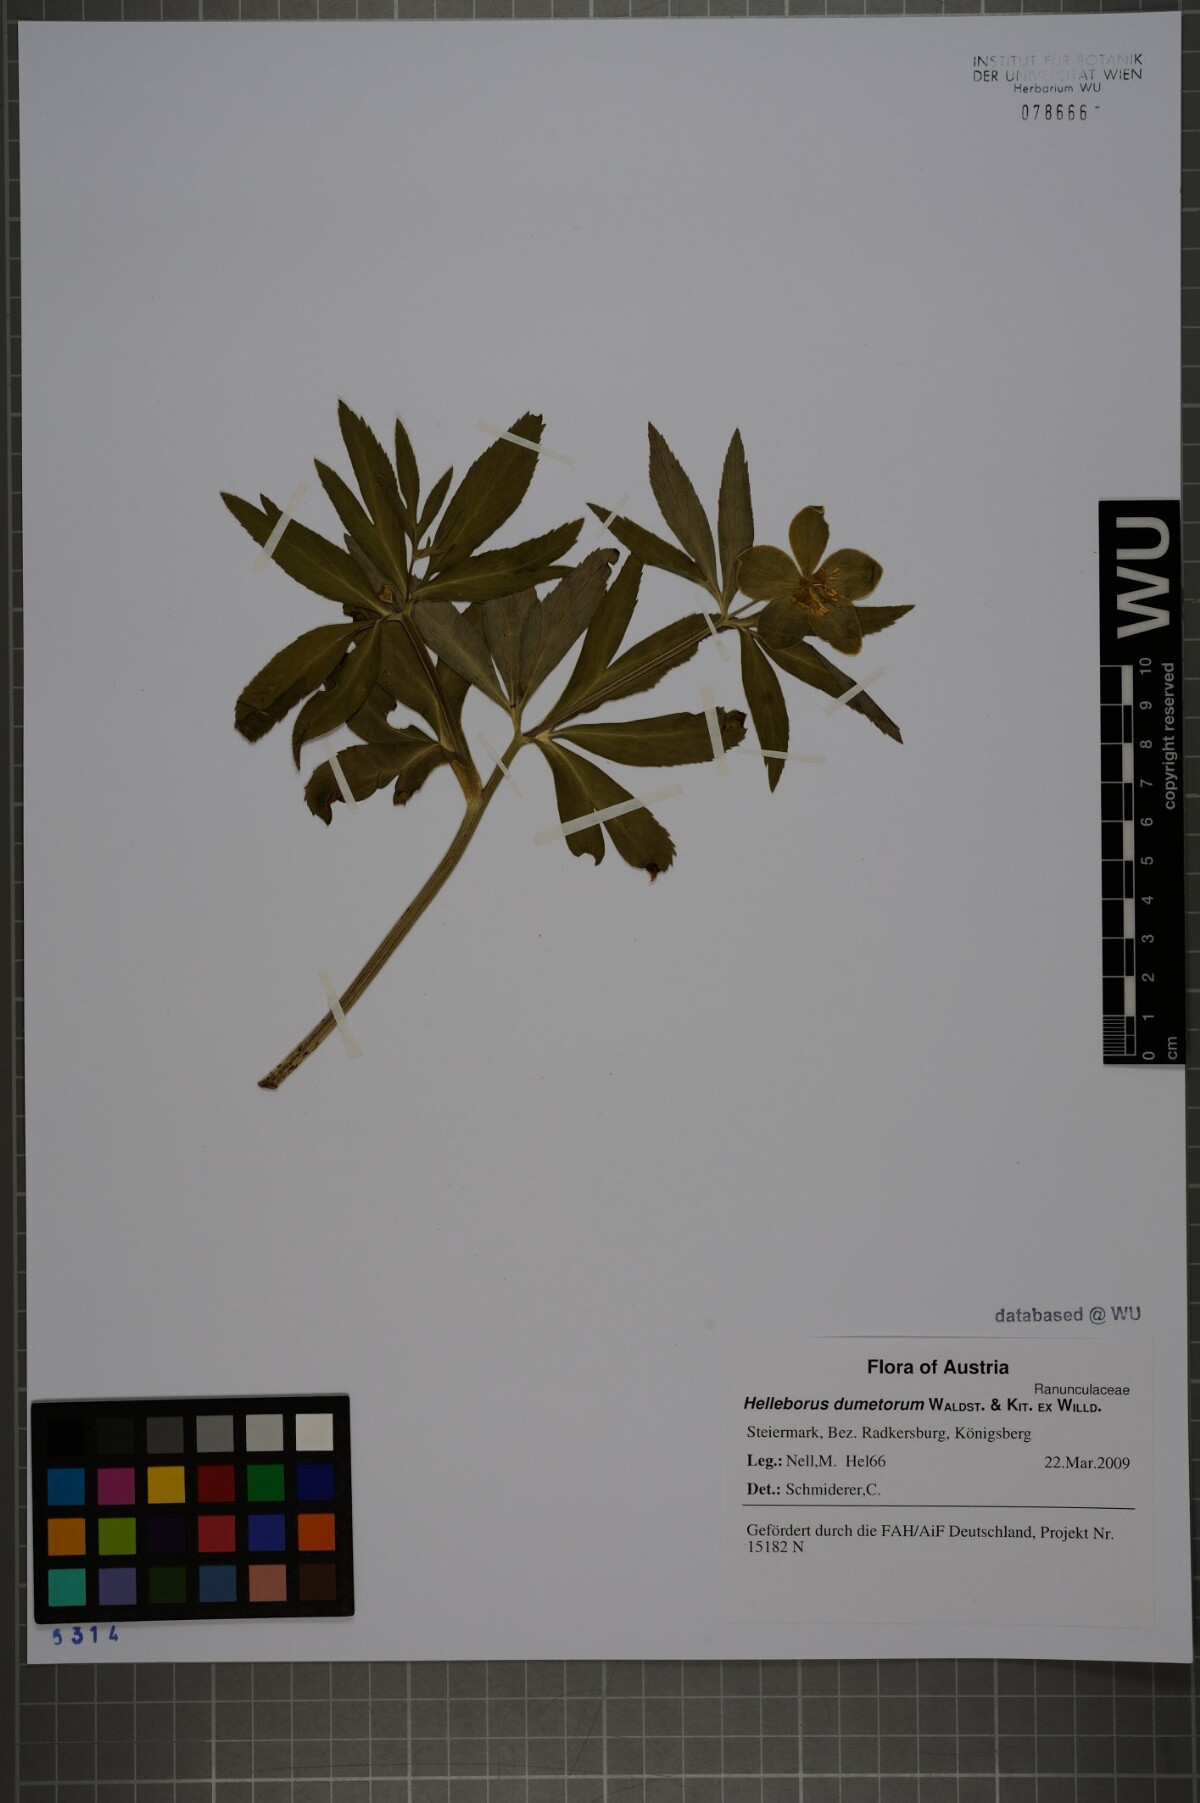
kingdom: Plantae
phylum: Tracheophyta
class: Magnoliopsida
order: Ranunculales
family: Ranunculaceae
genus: Helleborus
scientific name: Helleborus dumetorum
